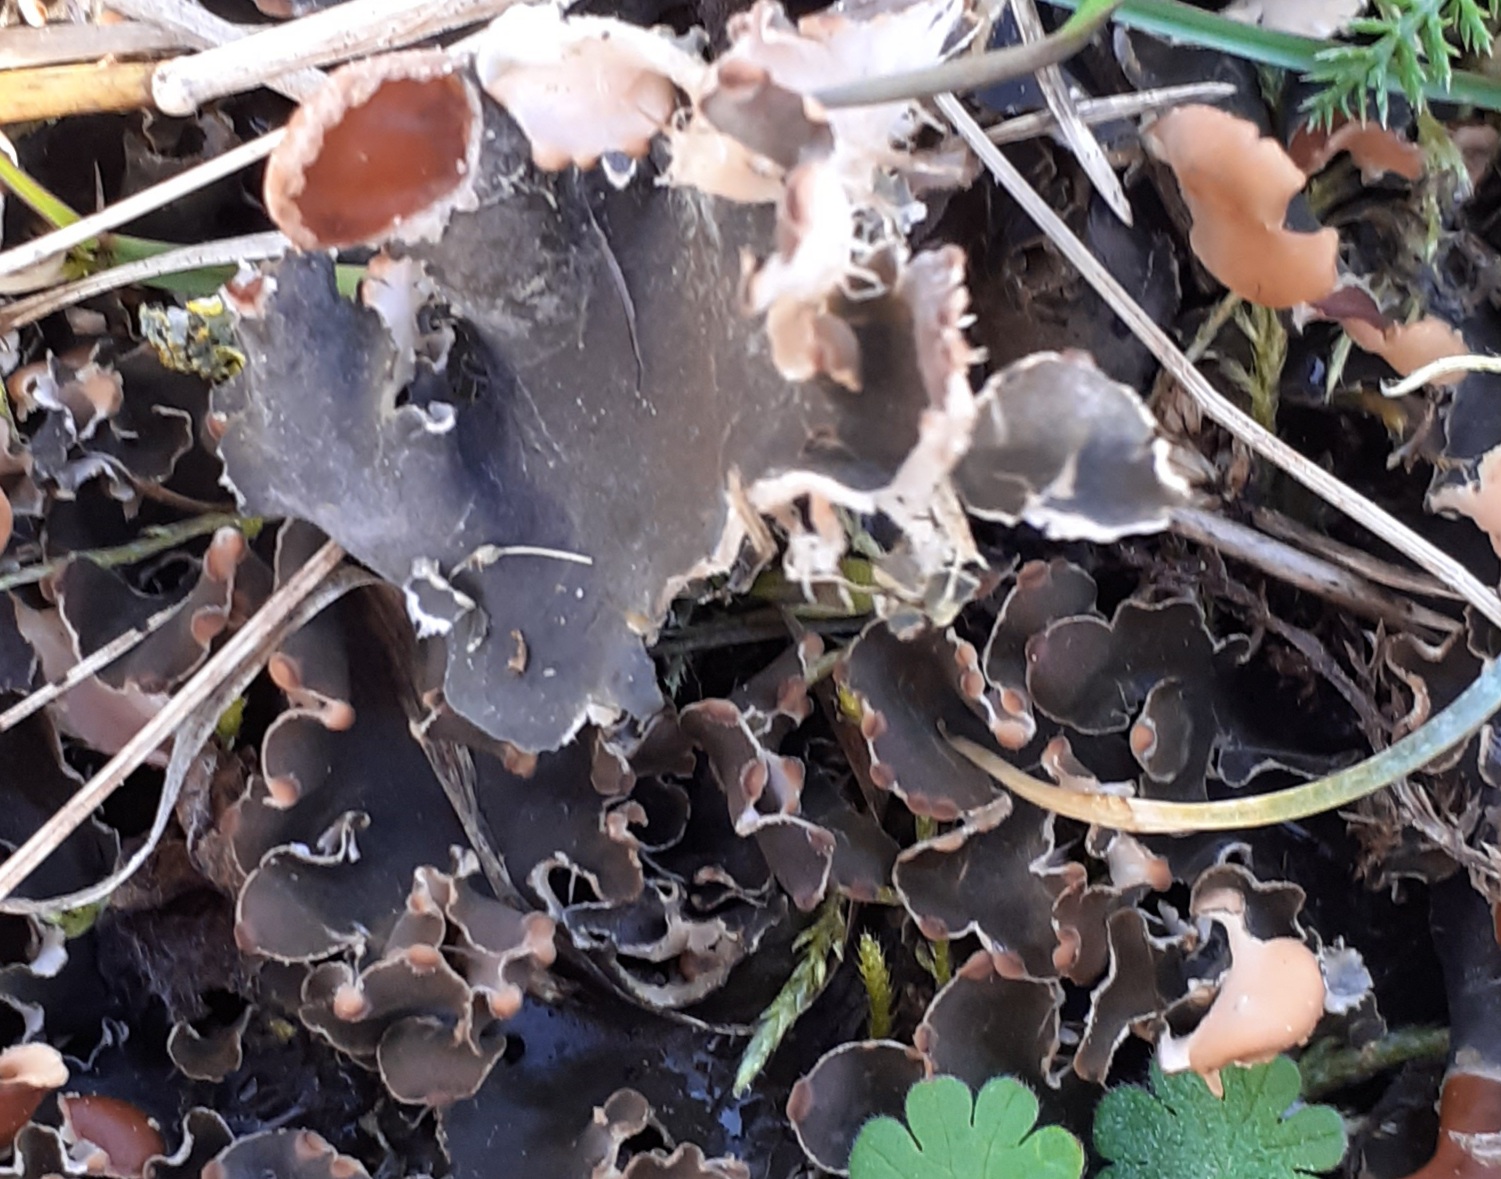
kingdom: Fungi
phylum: Ascomycota
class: Lecanoromycetes
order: Peltigerales
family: Peltigeraceae
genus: Peltigera
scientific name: Peltigera didactyla
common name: liden skjoldlav
